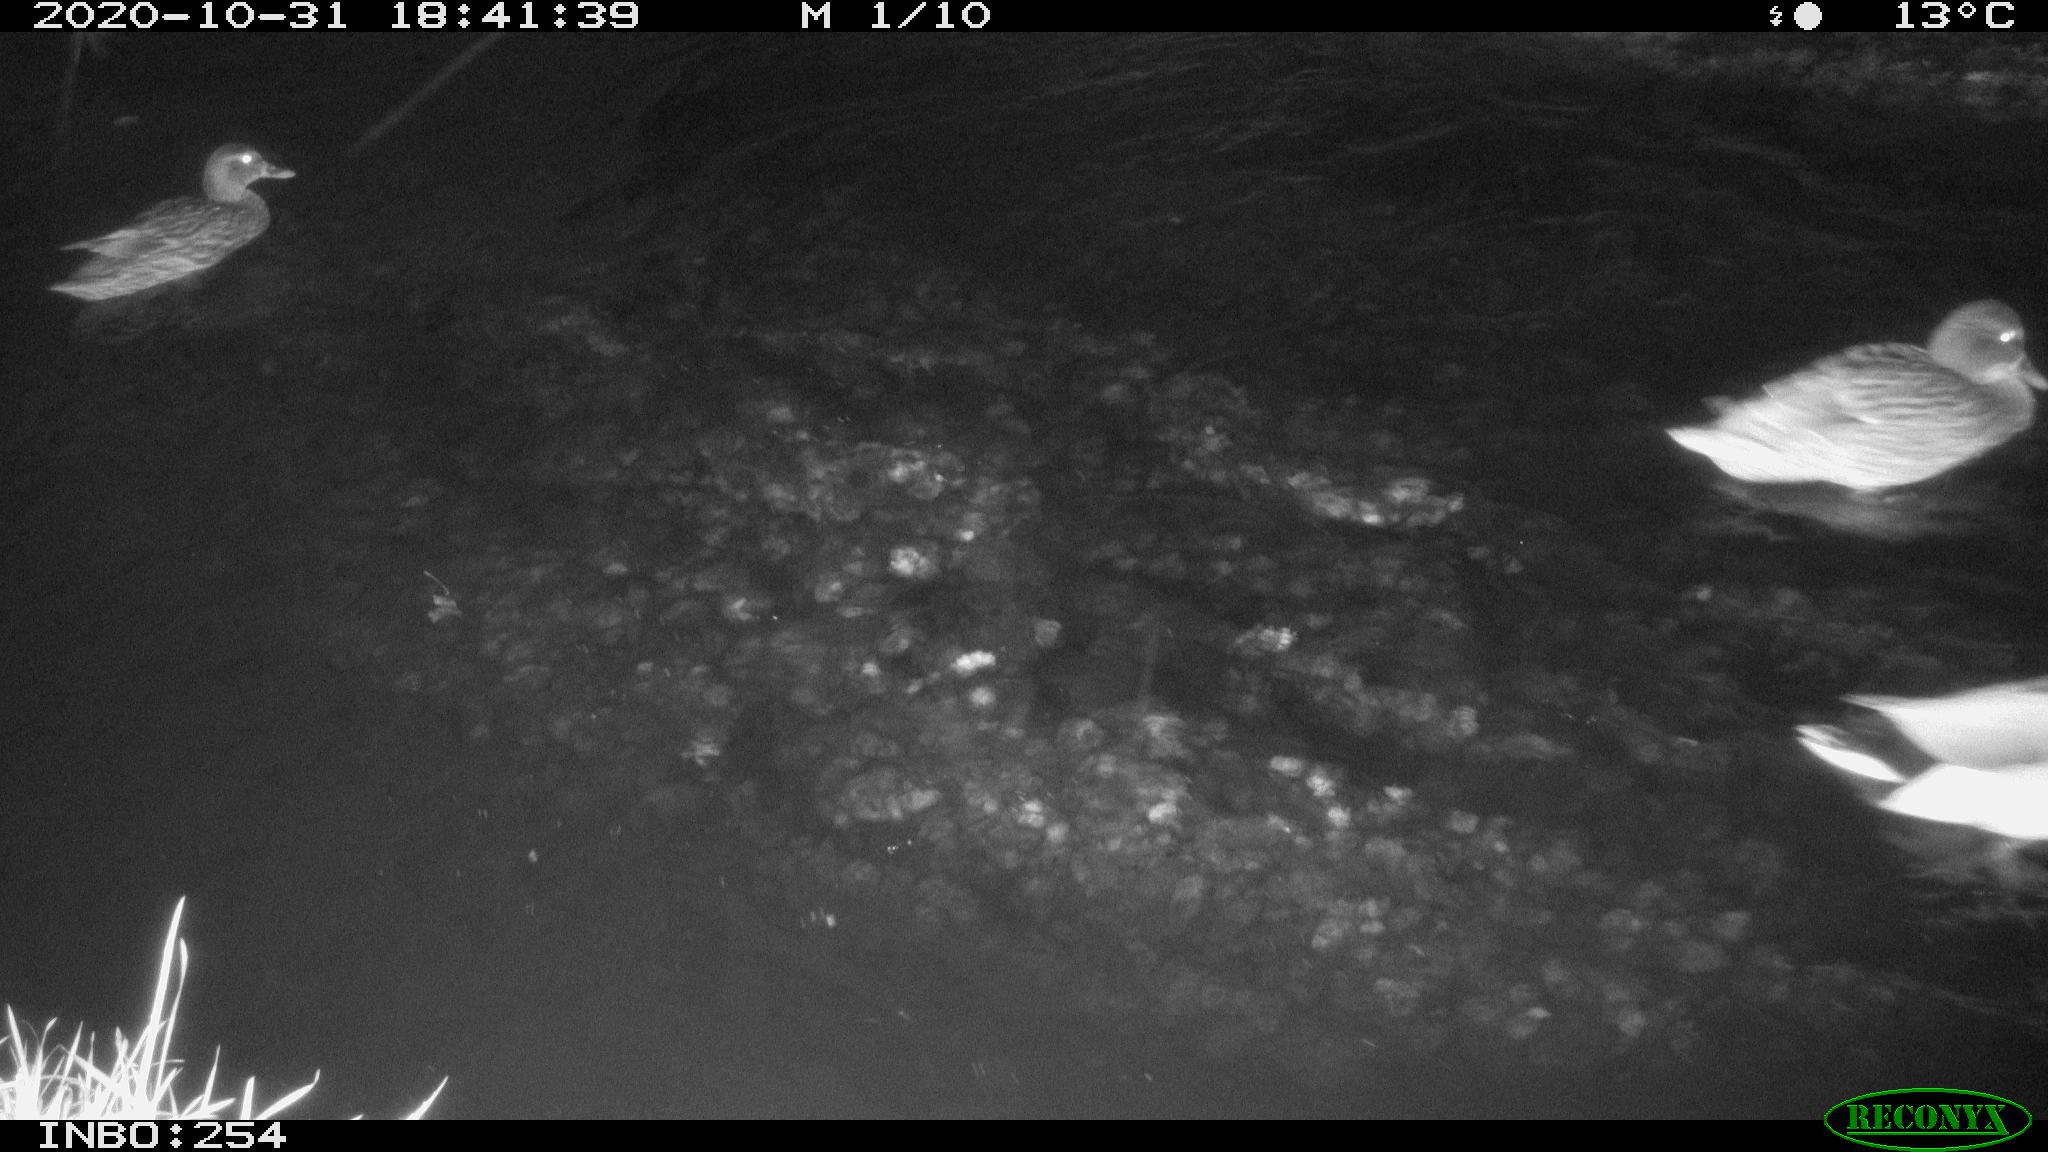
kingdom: Animalia
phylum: Chordata
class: Aves
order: Anseriformes
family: Anatidae
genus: Anas
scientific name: Anas platyrhynchos
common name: Mallard
